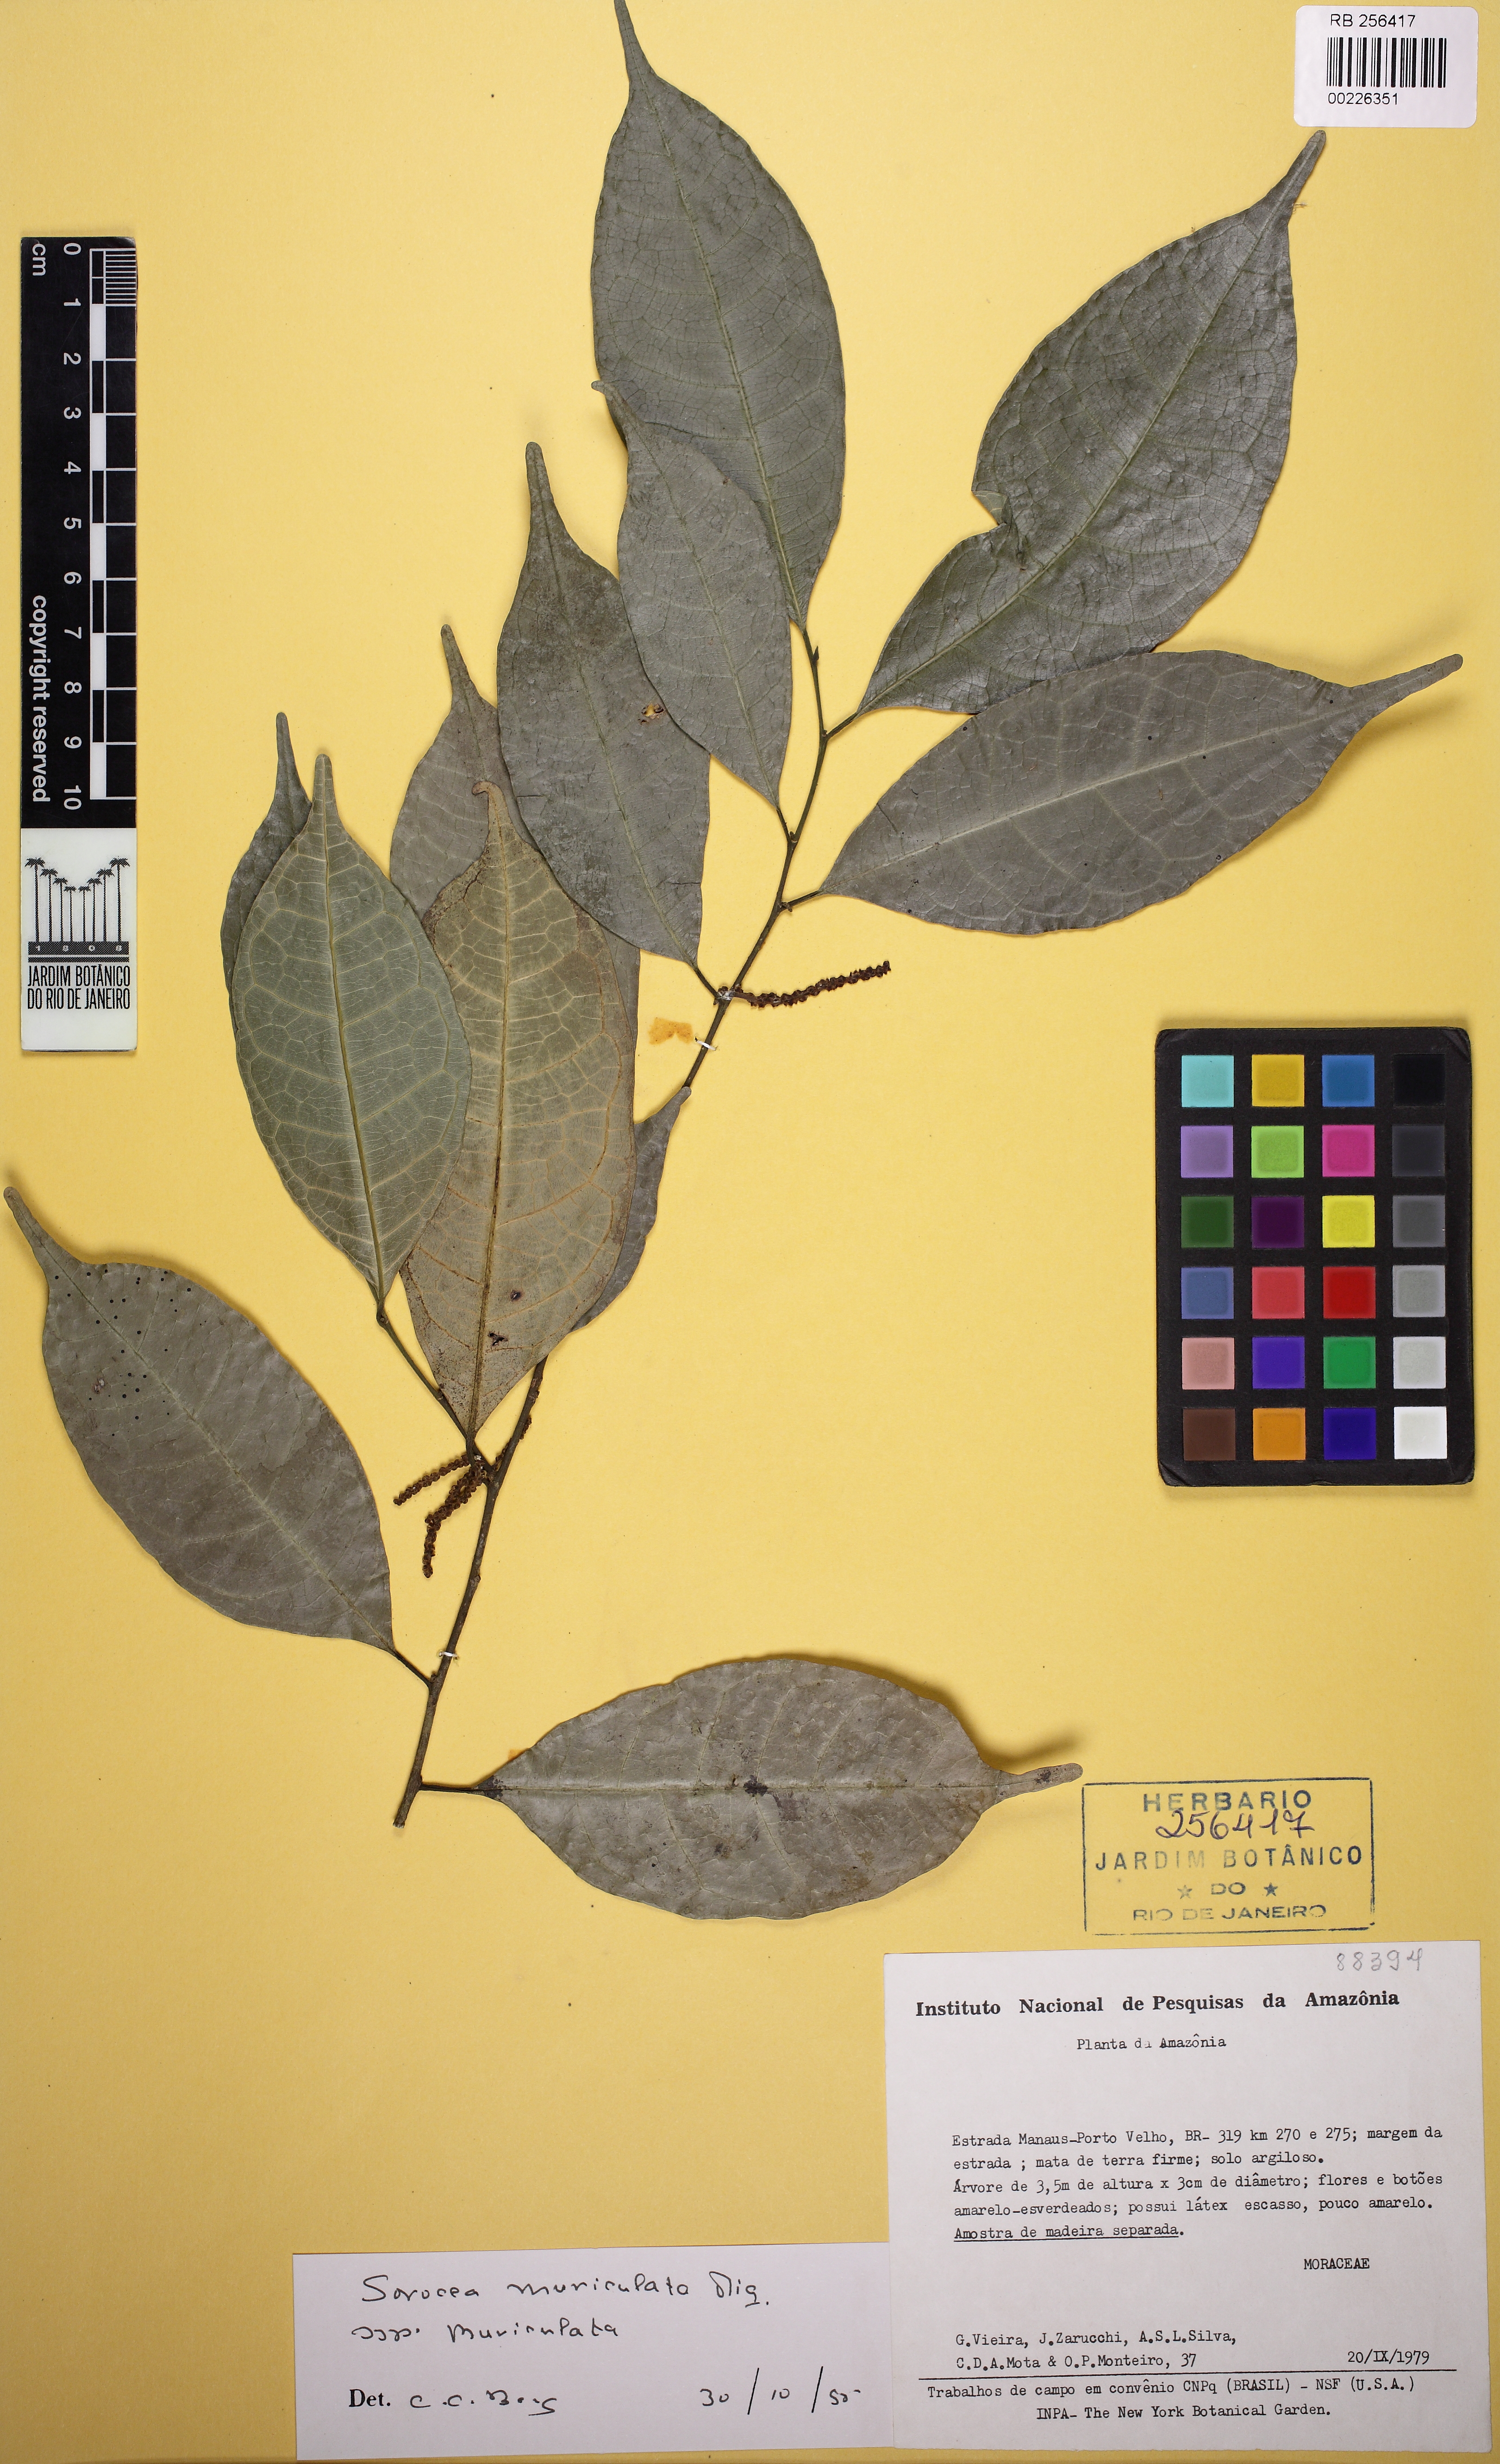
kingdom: Plantae
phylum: Tracheophyta
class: Magnoliopsida
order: Rosales
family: Moraceae
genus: Sorocea
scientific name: Sorocea muriculata
